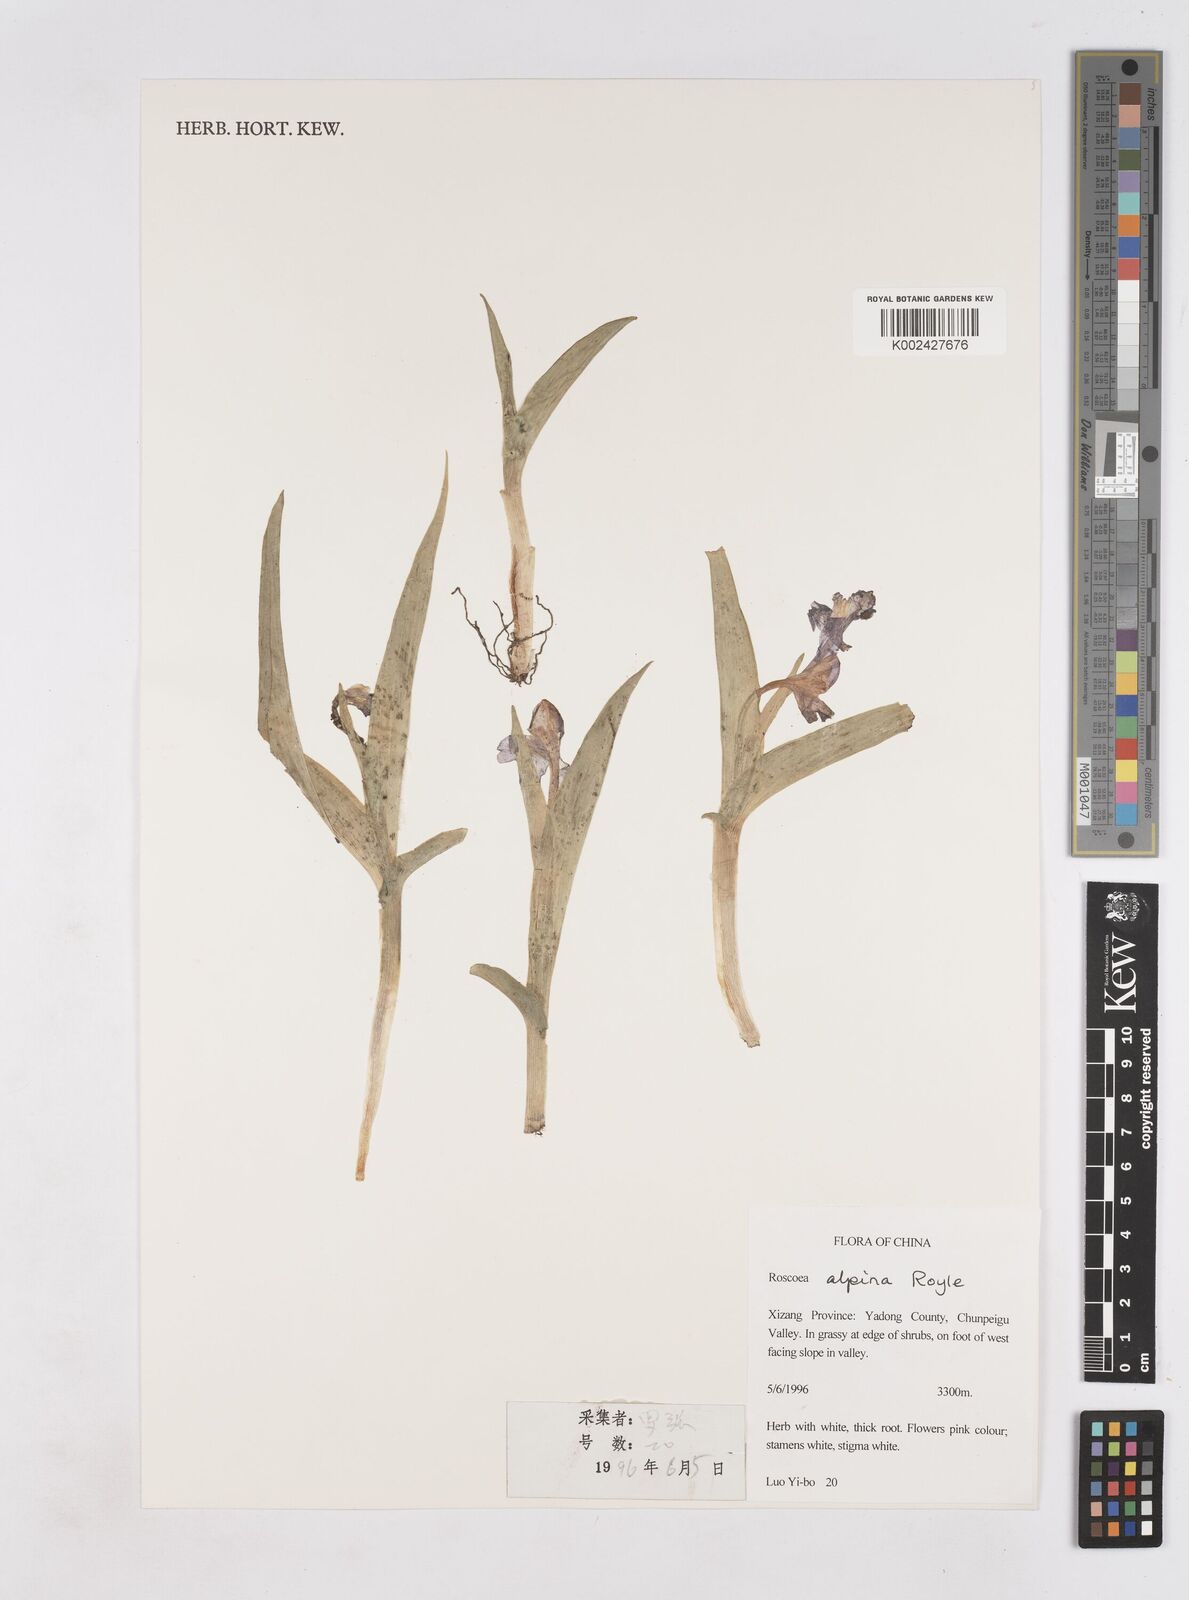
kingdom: Plantae
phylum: Tracheophyta
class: Liliopsida
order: Zingiberales
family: Zingiberaceae
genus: Roscoea
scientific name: Roscoea alpina
